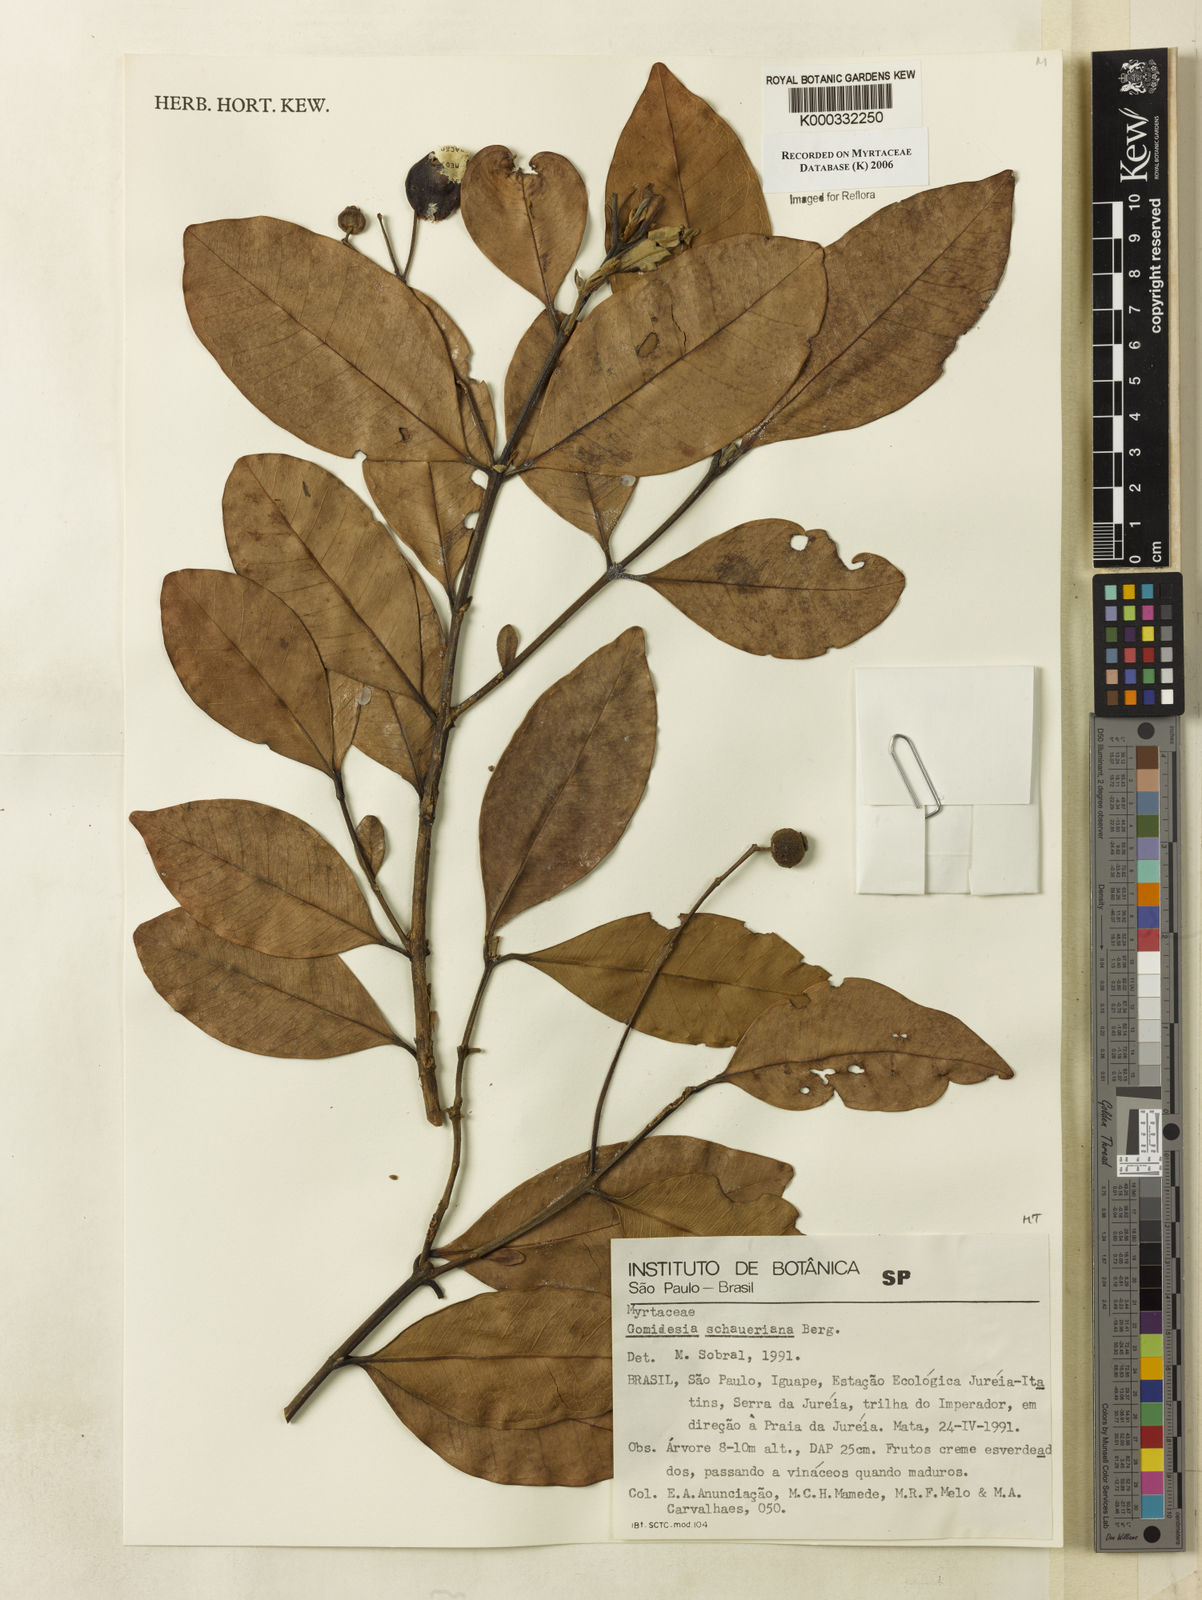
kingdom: Plantae
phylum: Tracheophyta
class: Magnoliopsida
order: Myrtales
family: Myrtaceae
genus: Myrcia
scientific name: Myrcia freyreissiana
